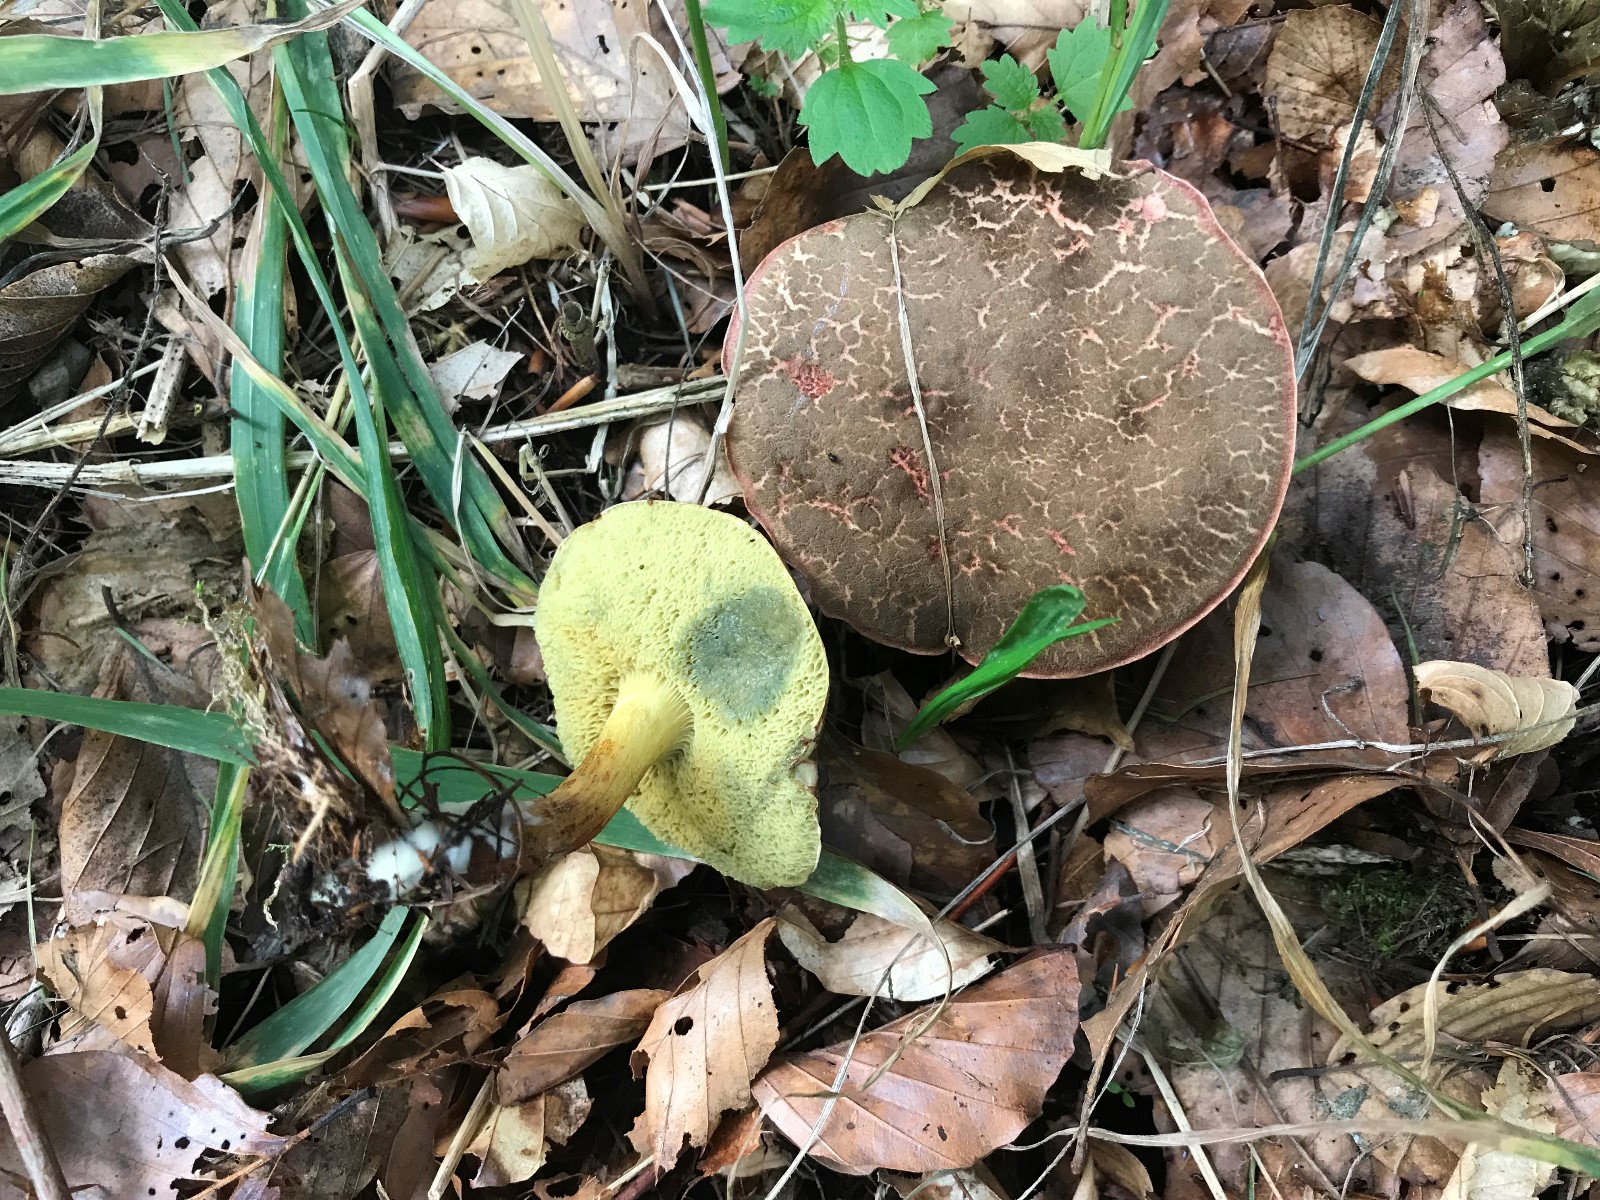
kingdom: Fungi
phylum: Basidiomycota
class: Agaricomycetes
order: Boletales
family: Boletaceae
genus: Xerocomellus
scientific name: Xerocomellus cisalpinus
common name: finsprukken rørhat
